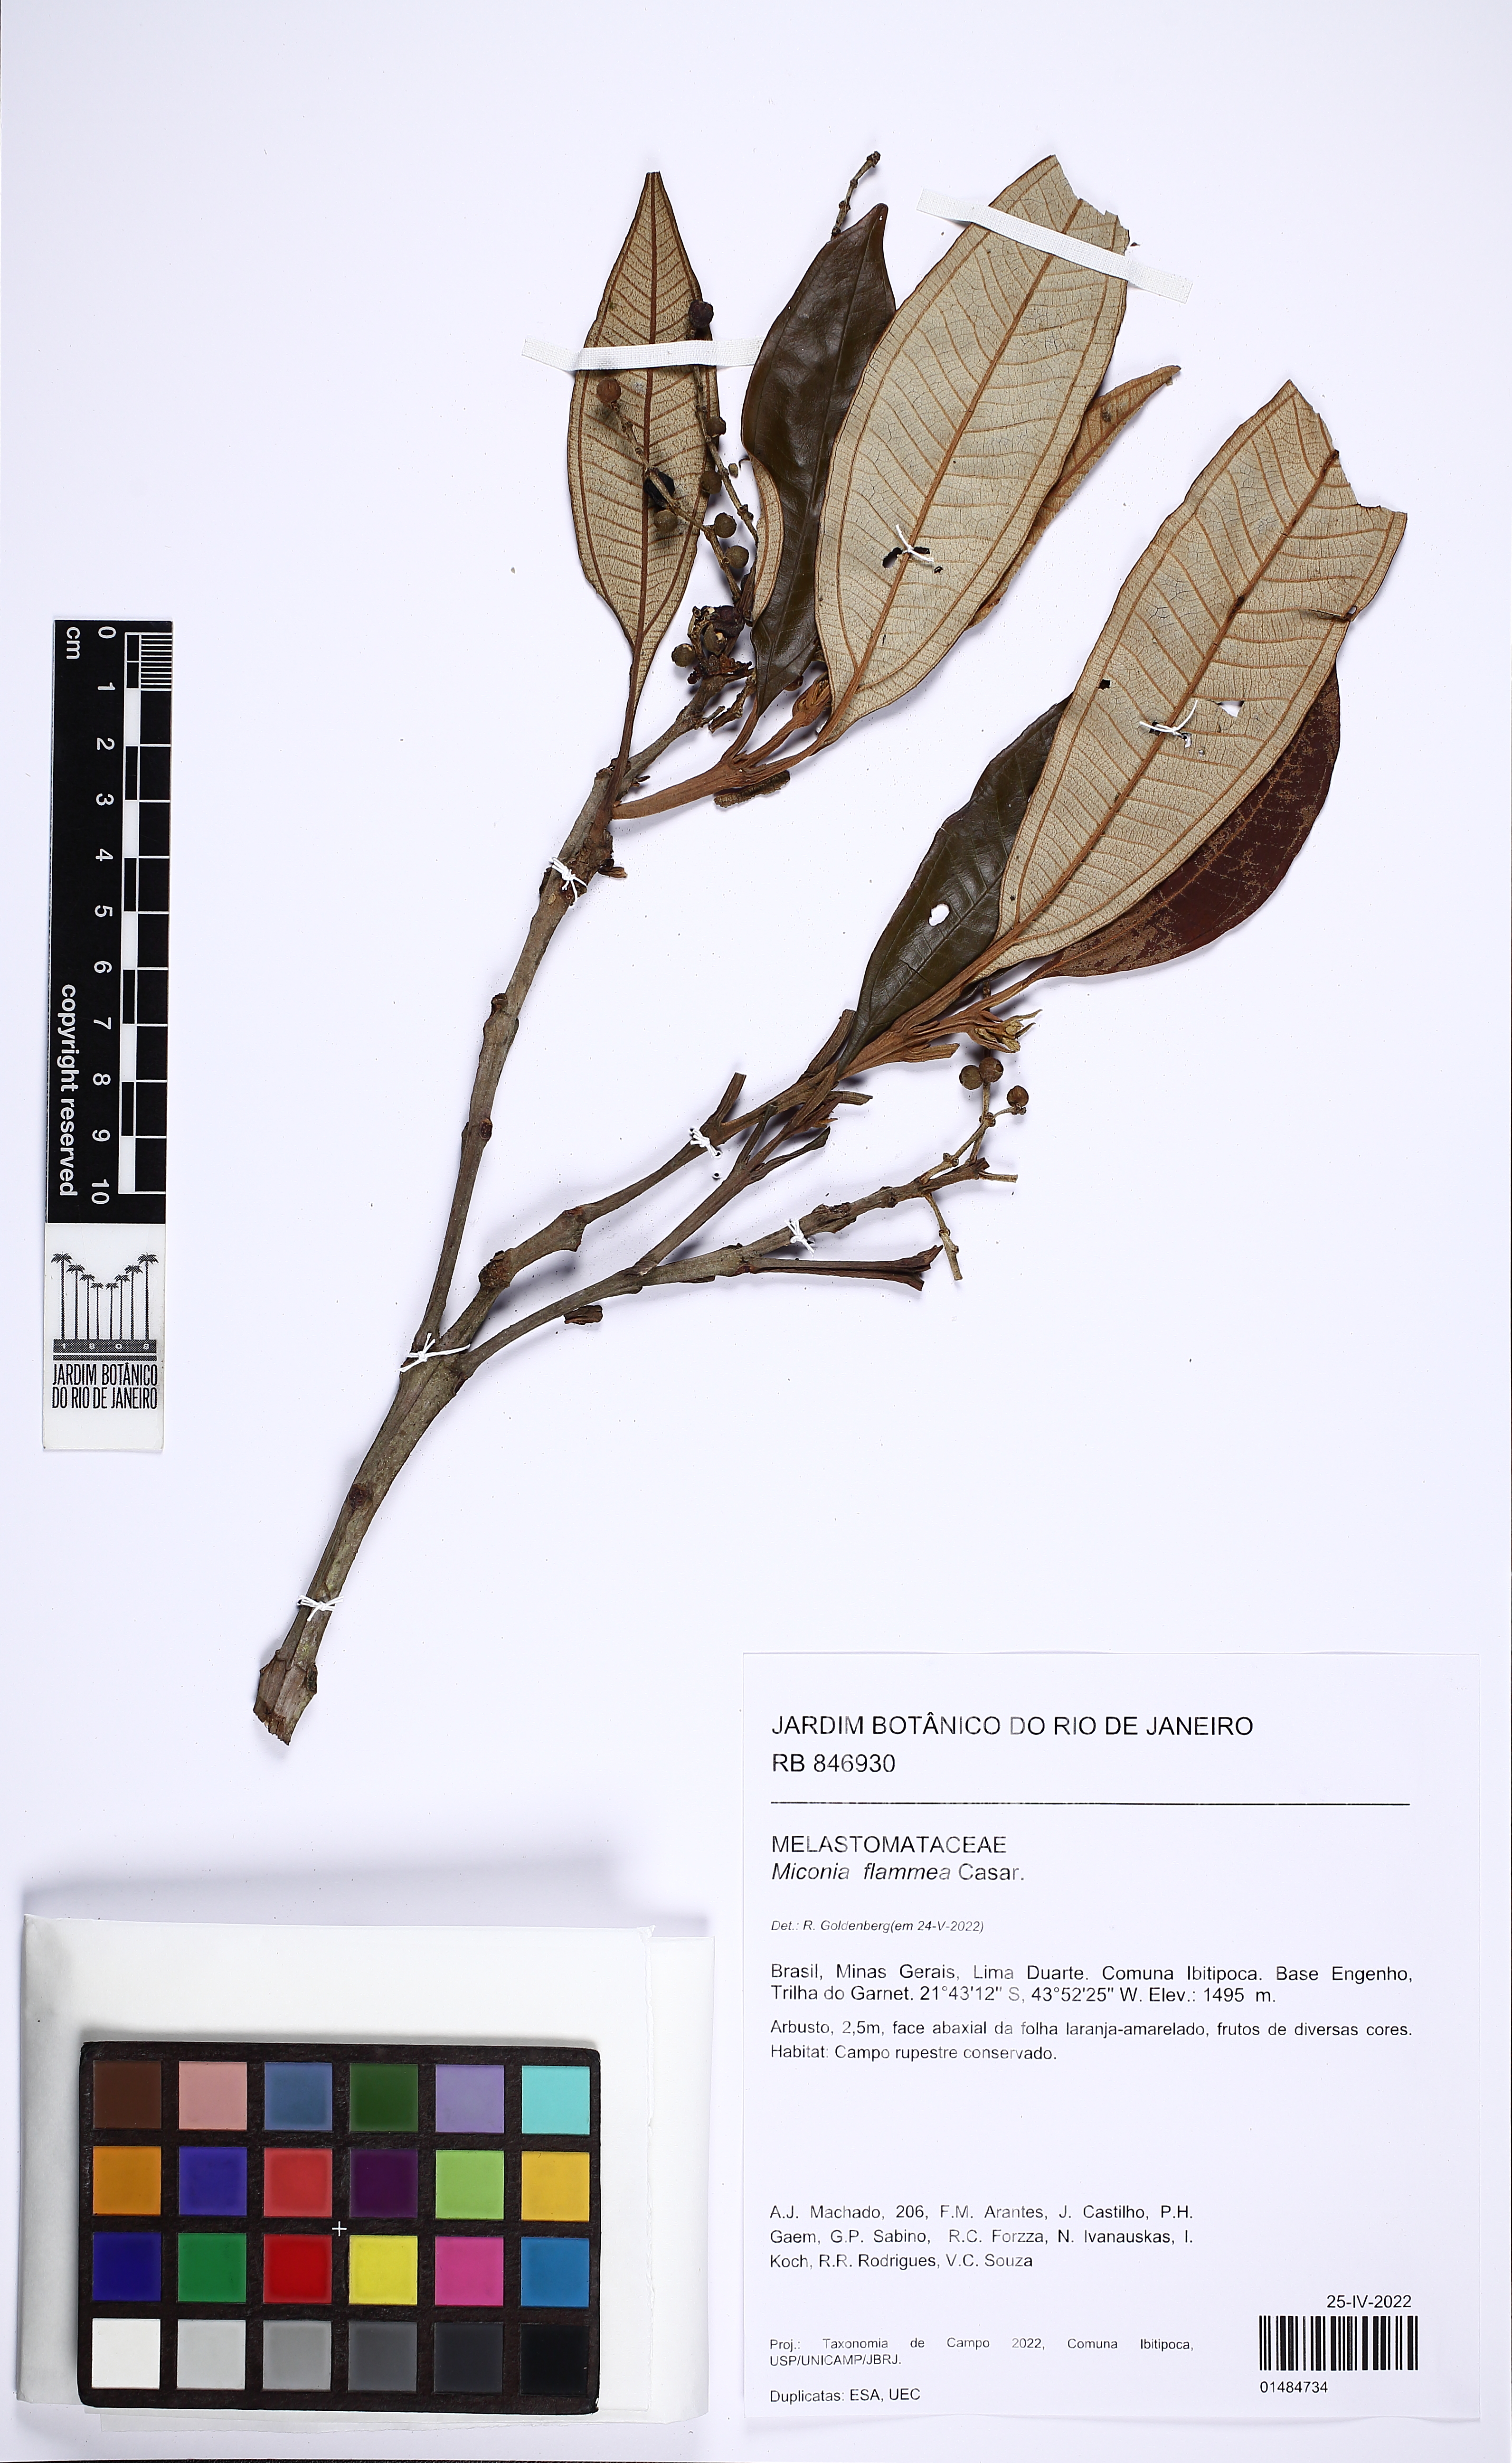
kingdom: Plantae
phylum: Tracheophyta
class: Magnoliopsida
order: Myrtales
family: Melastomataceae
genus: Miconia
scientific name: Miconia flammea
